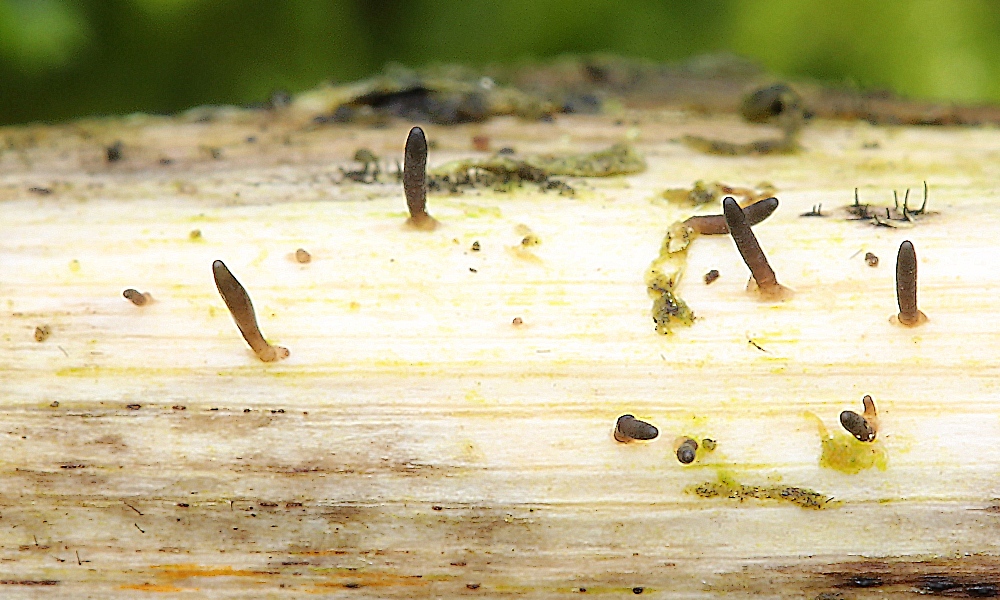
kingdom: Fungi
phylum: Ascomycota
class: Dothideomycetes
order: Acrospermales
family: Acrospermaceae
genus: Acrospermum
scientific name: Acrospermum compressum
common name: nælde-stængeltunge
